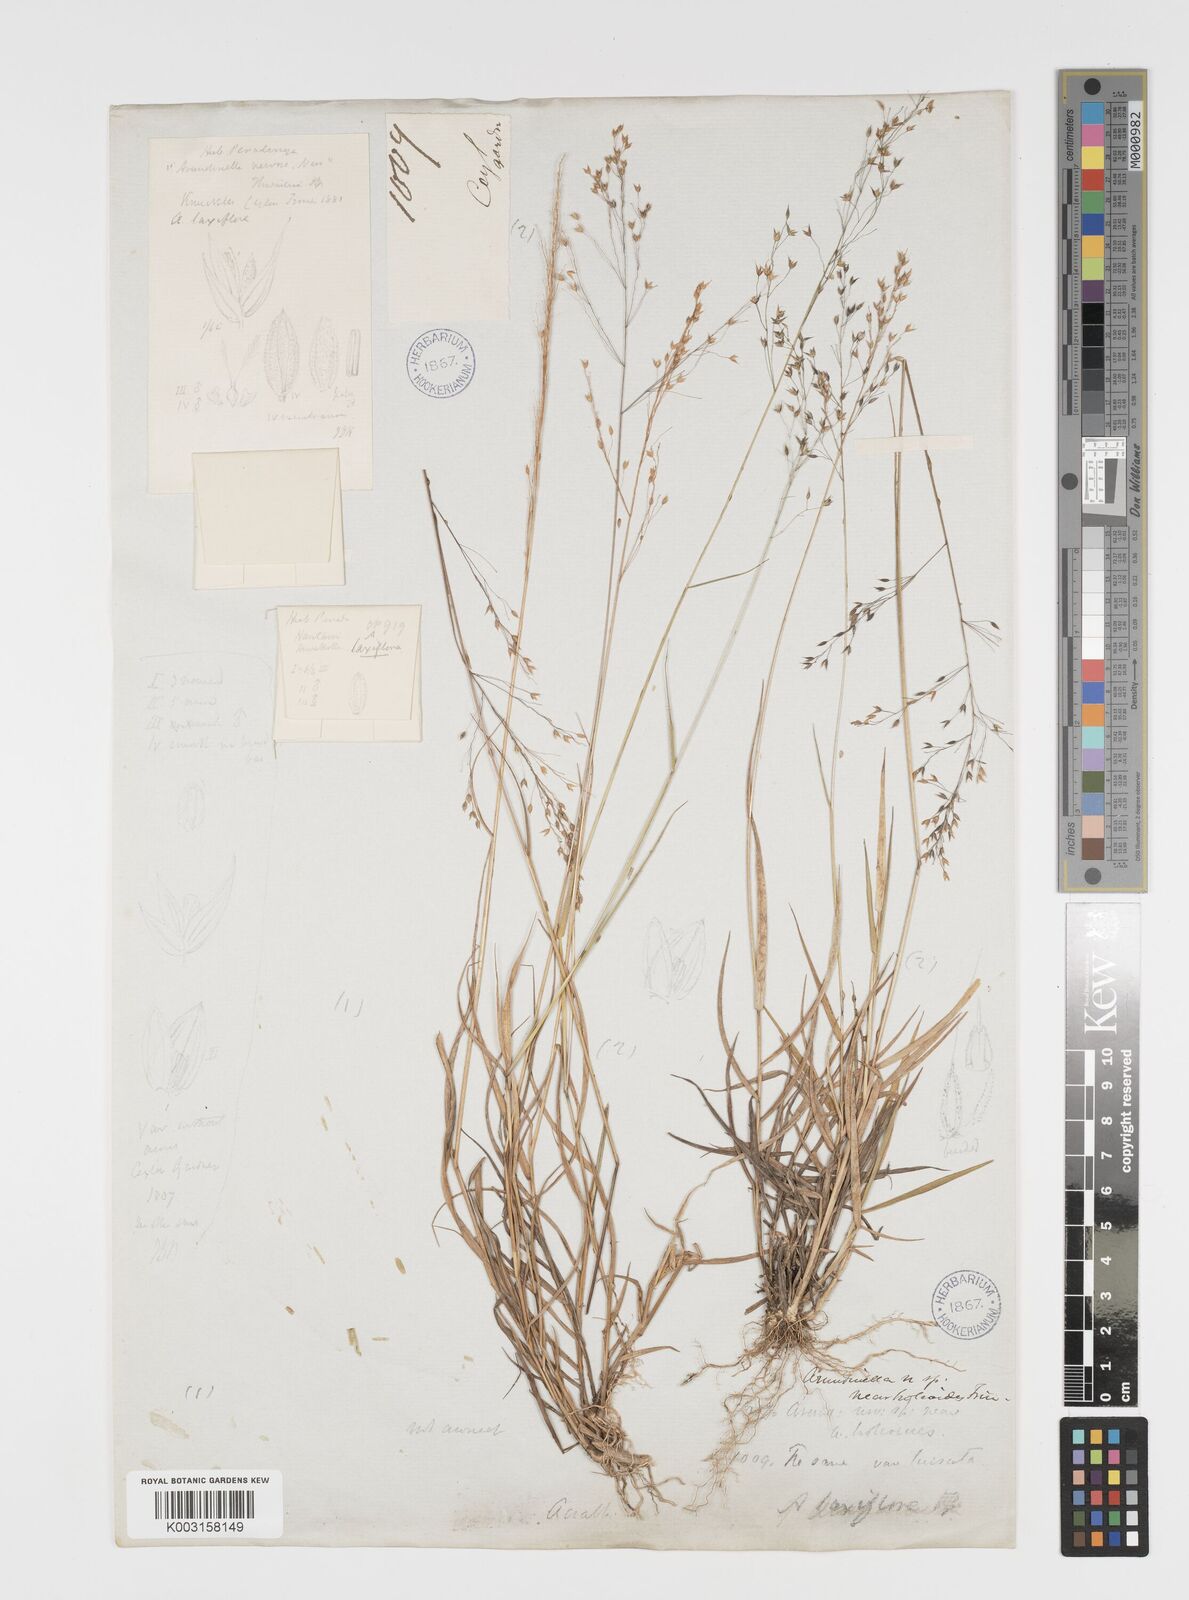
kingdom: Plantae
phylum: Tracheophyta
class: Liliopsida
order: Poales
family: Poaceae
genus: Arundinella
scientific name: Arundinella laxiflora
